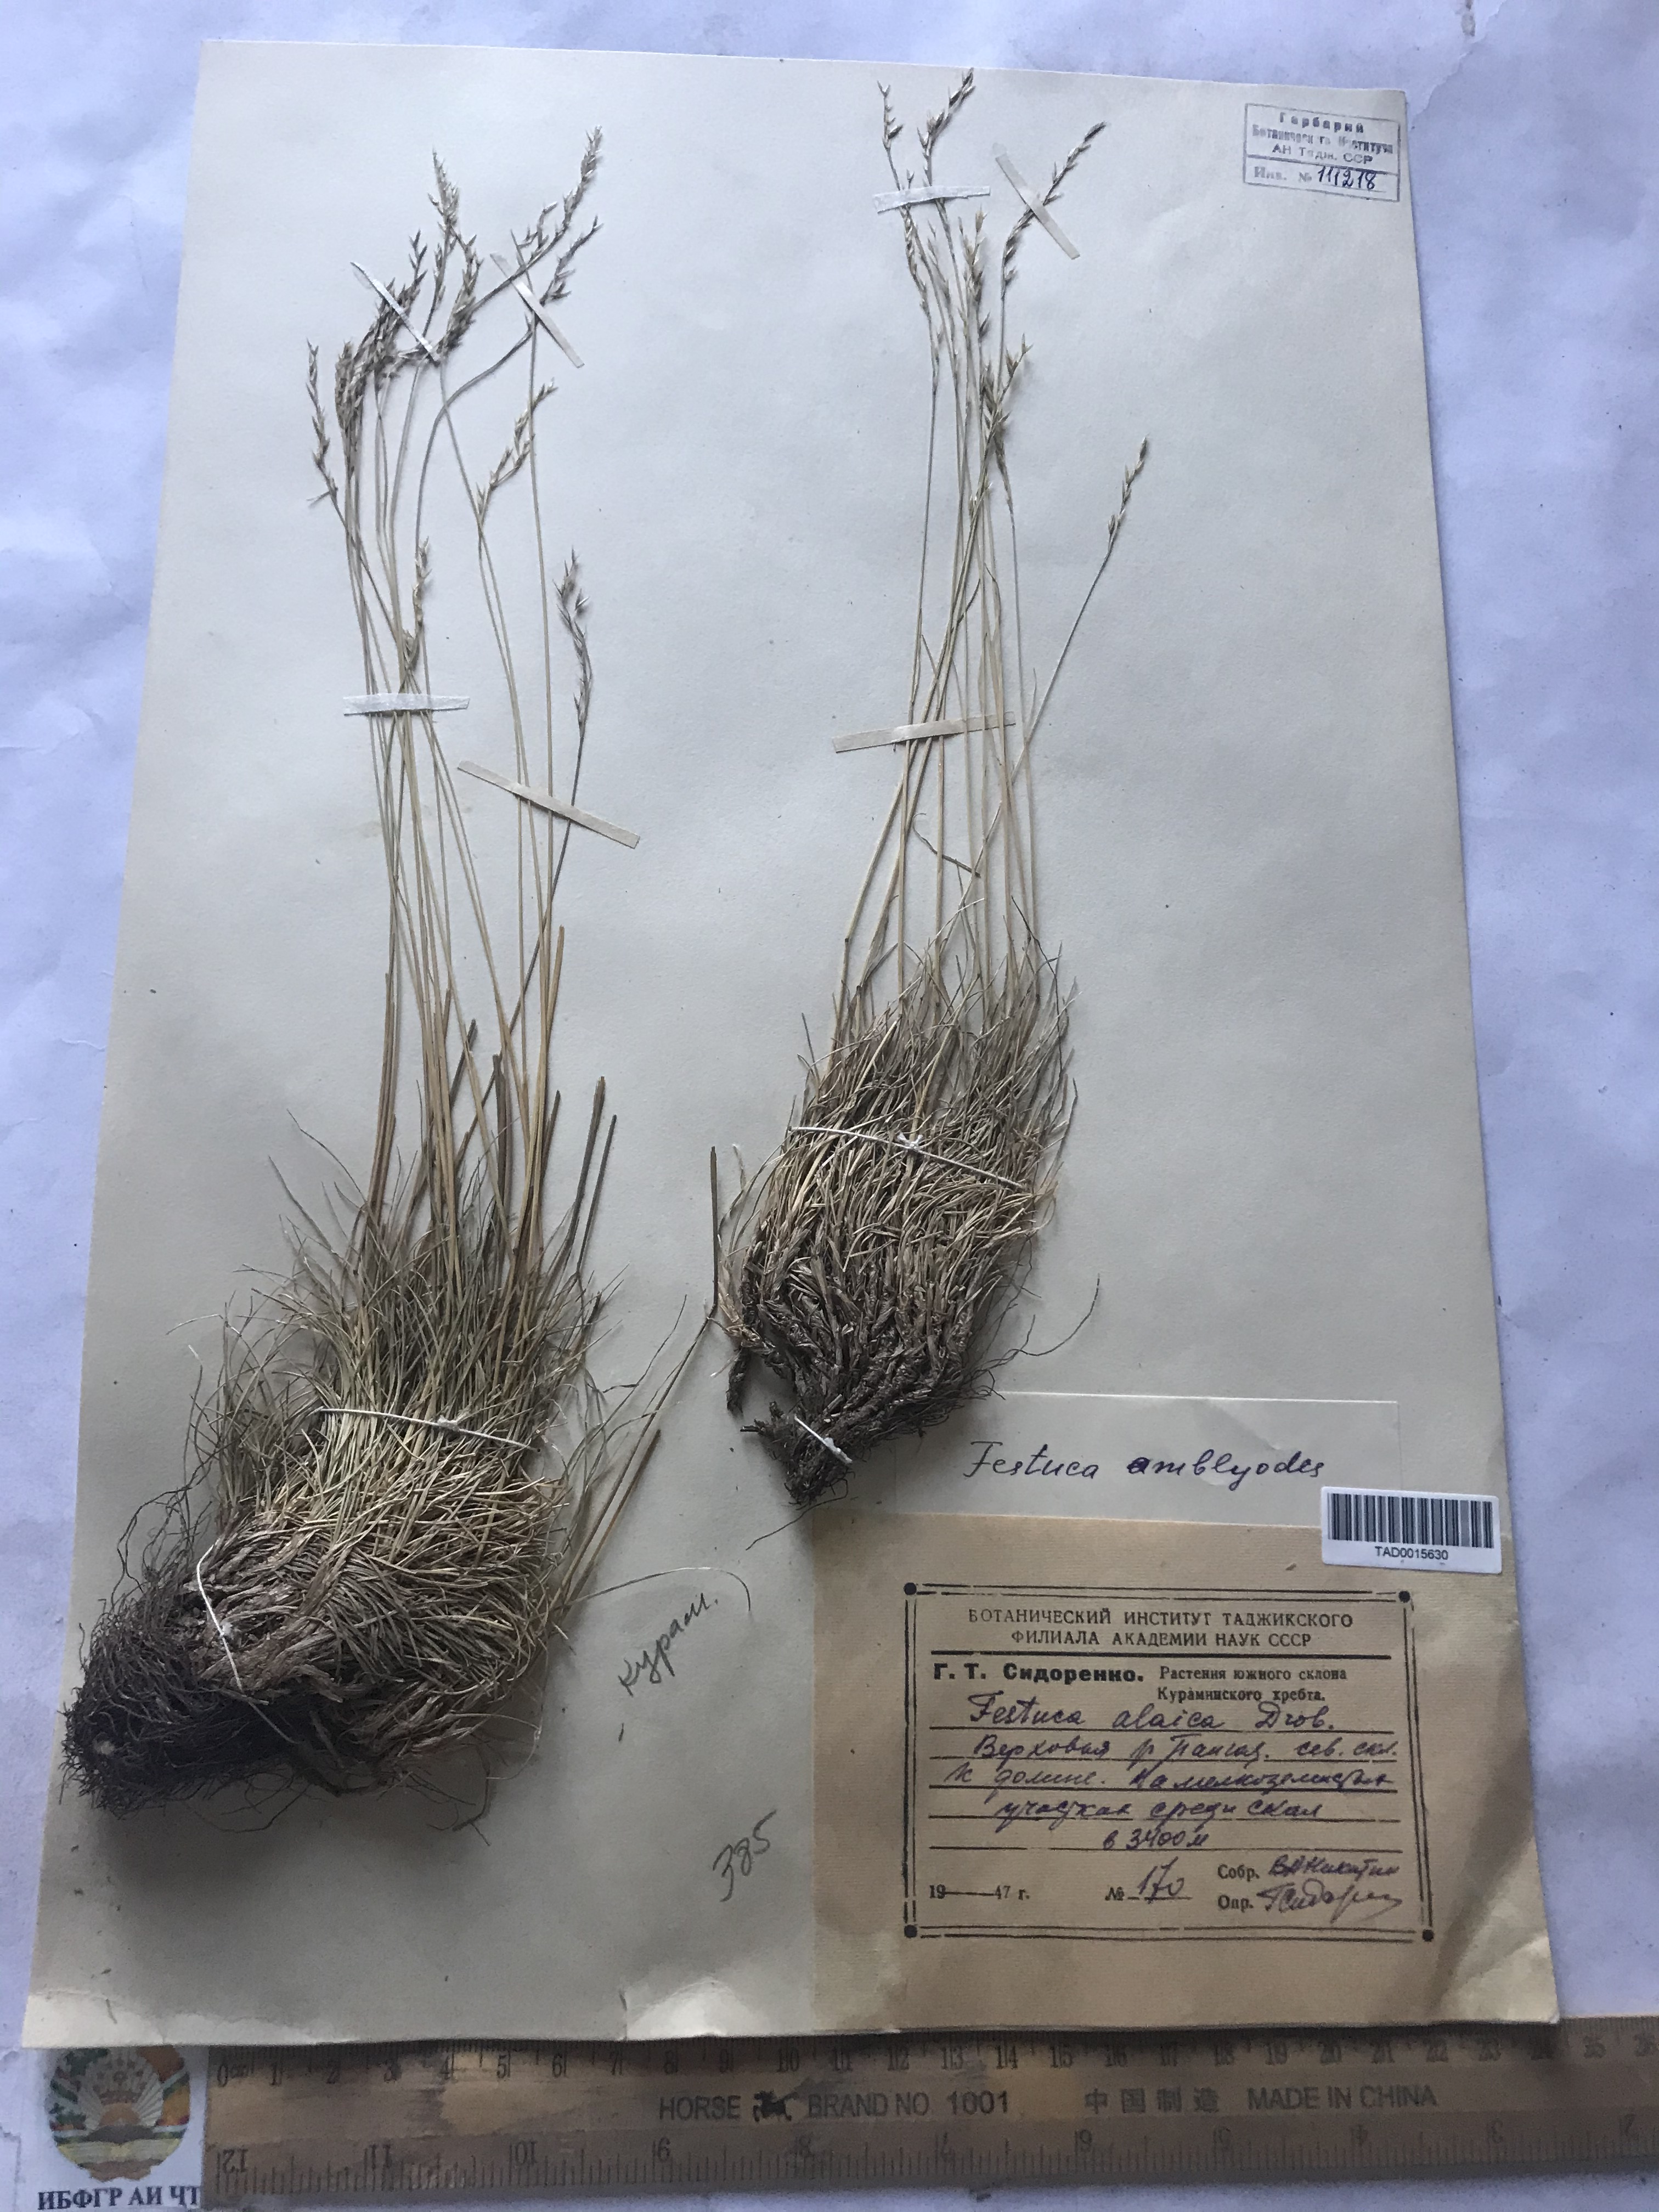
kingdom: Plantae
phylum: Tracheophyta
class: Liliopsida
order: Poales
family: Poaceae
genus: Festuca
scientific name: Festuca alaica
